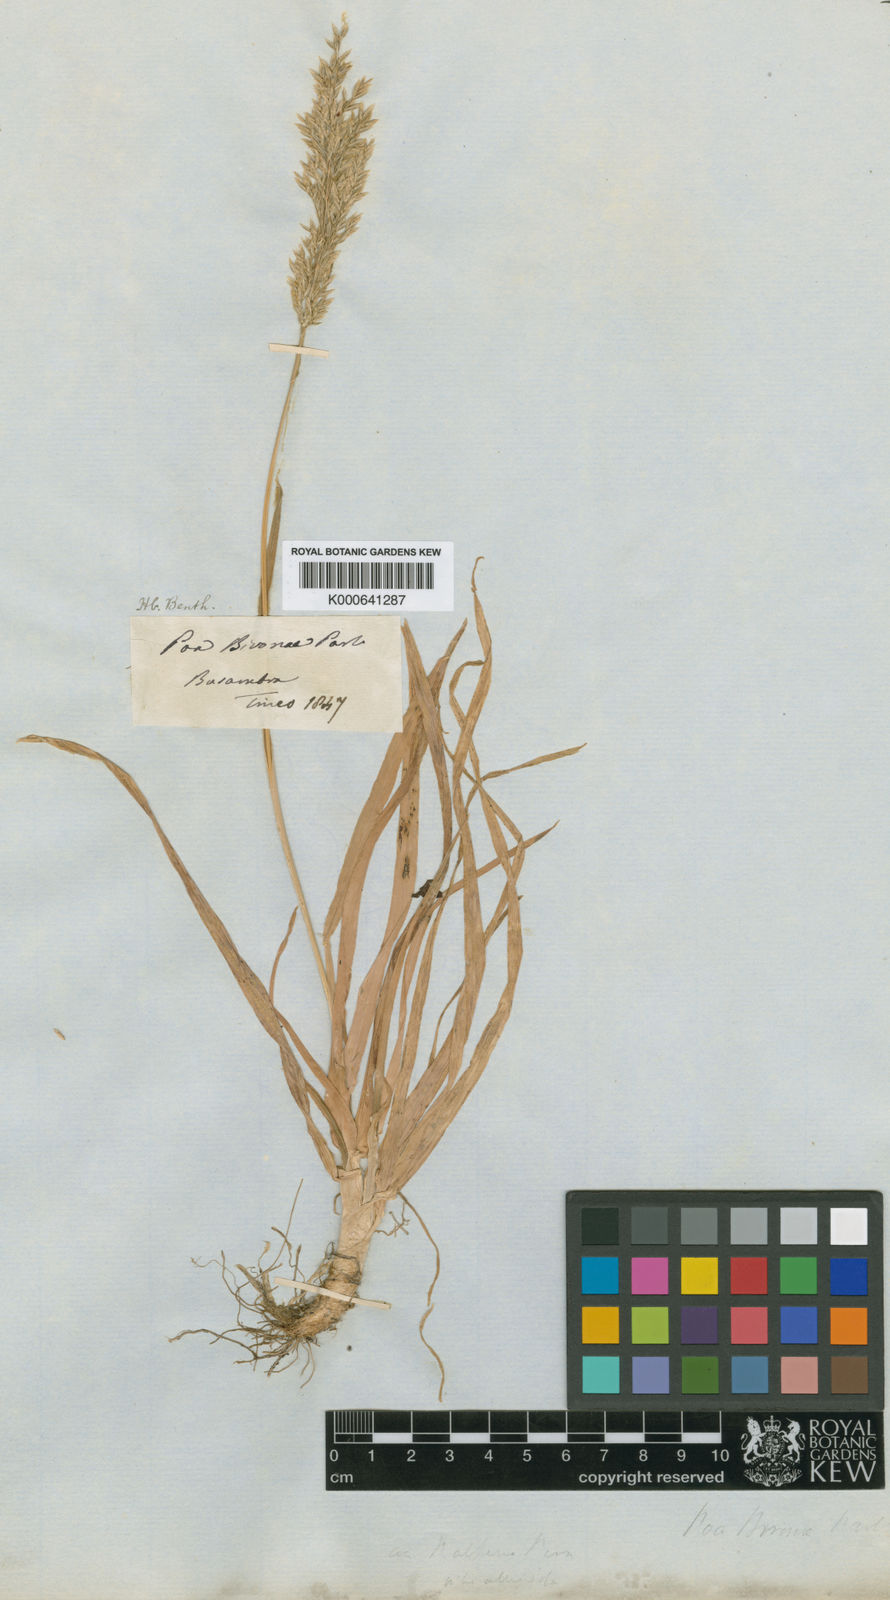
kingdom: Plantae
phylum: Tracheophyta
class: Liliopsida
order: Poales
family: Poaceae
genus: Poa
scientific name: Poa alpina
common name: Alpine bluegrass
